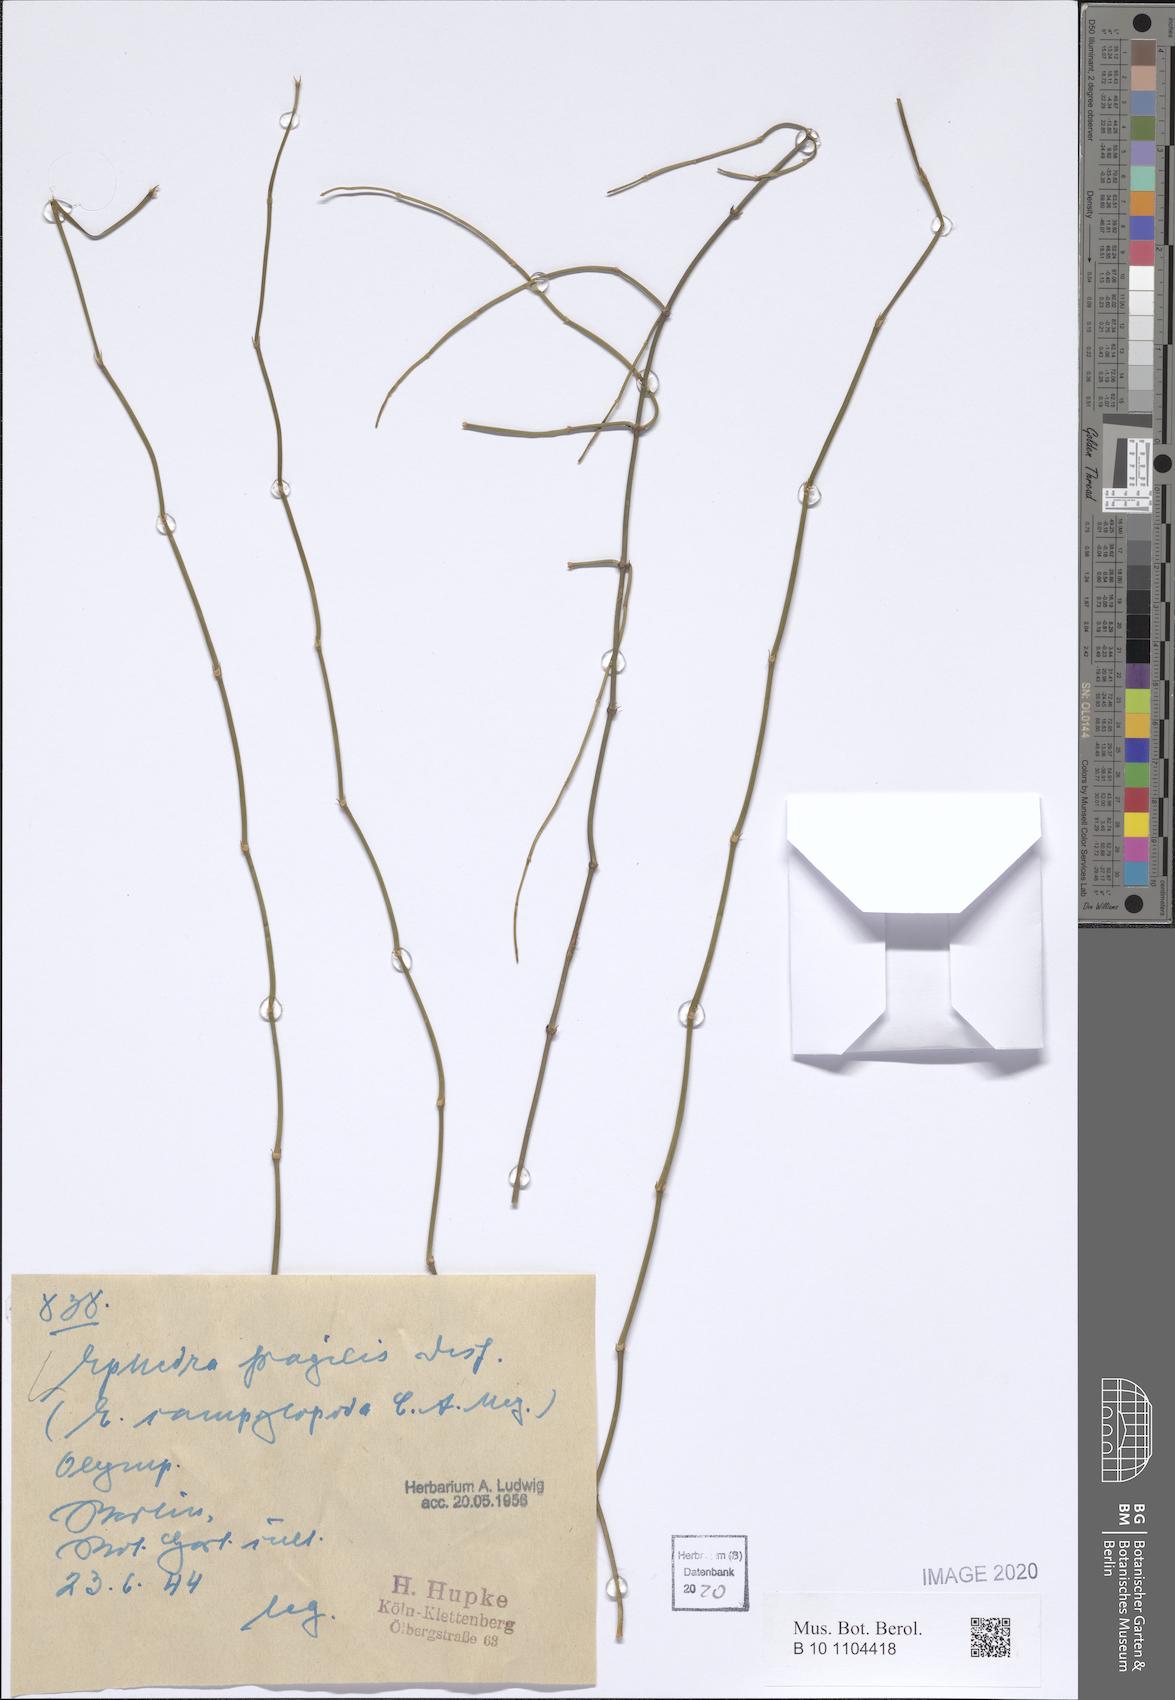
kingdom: Plantae
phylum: Tracheophyta
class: Gnetopsida
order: Ephedrales
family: Ephedraceae
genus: Ephedra
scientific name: Ephedra fragilis
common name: Joint pine
